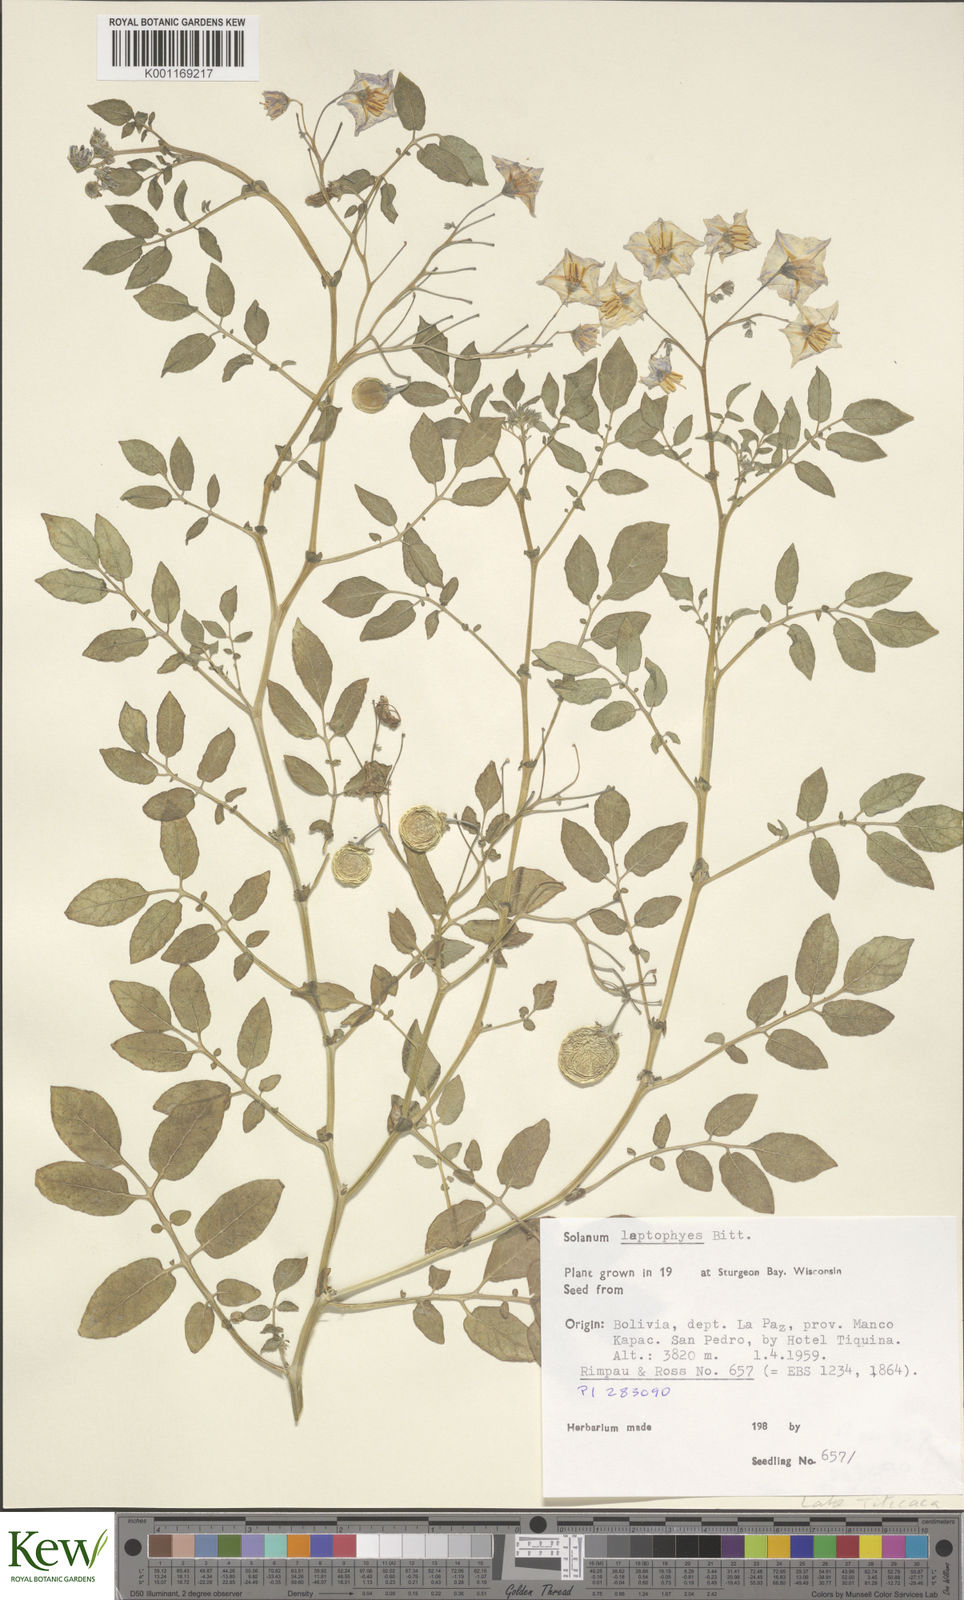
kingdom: Plantae
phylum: Tracheophyta
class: Magnoliopsida
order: Solanales
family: Solanaceae
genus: Solanum
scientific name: Solanum brevicaule
